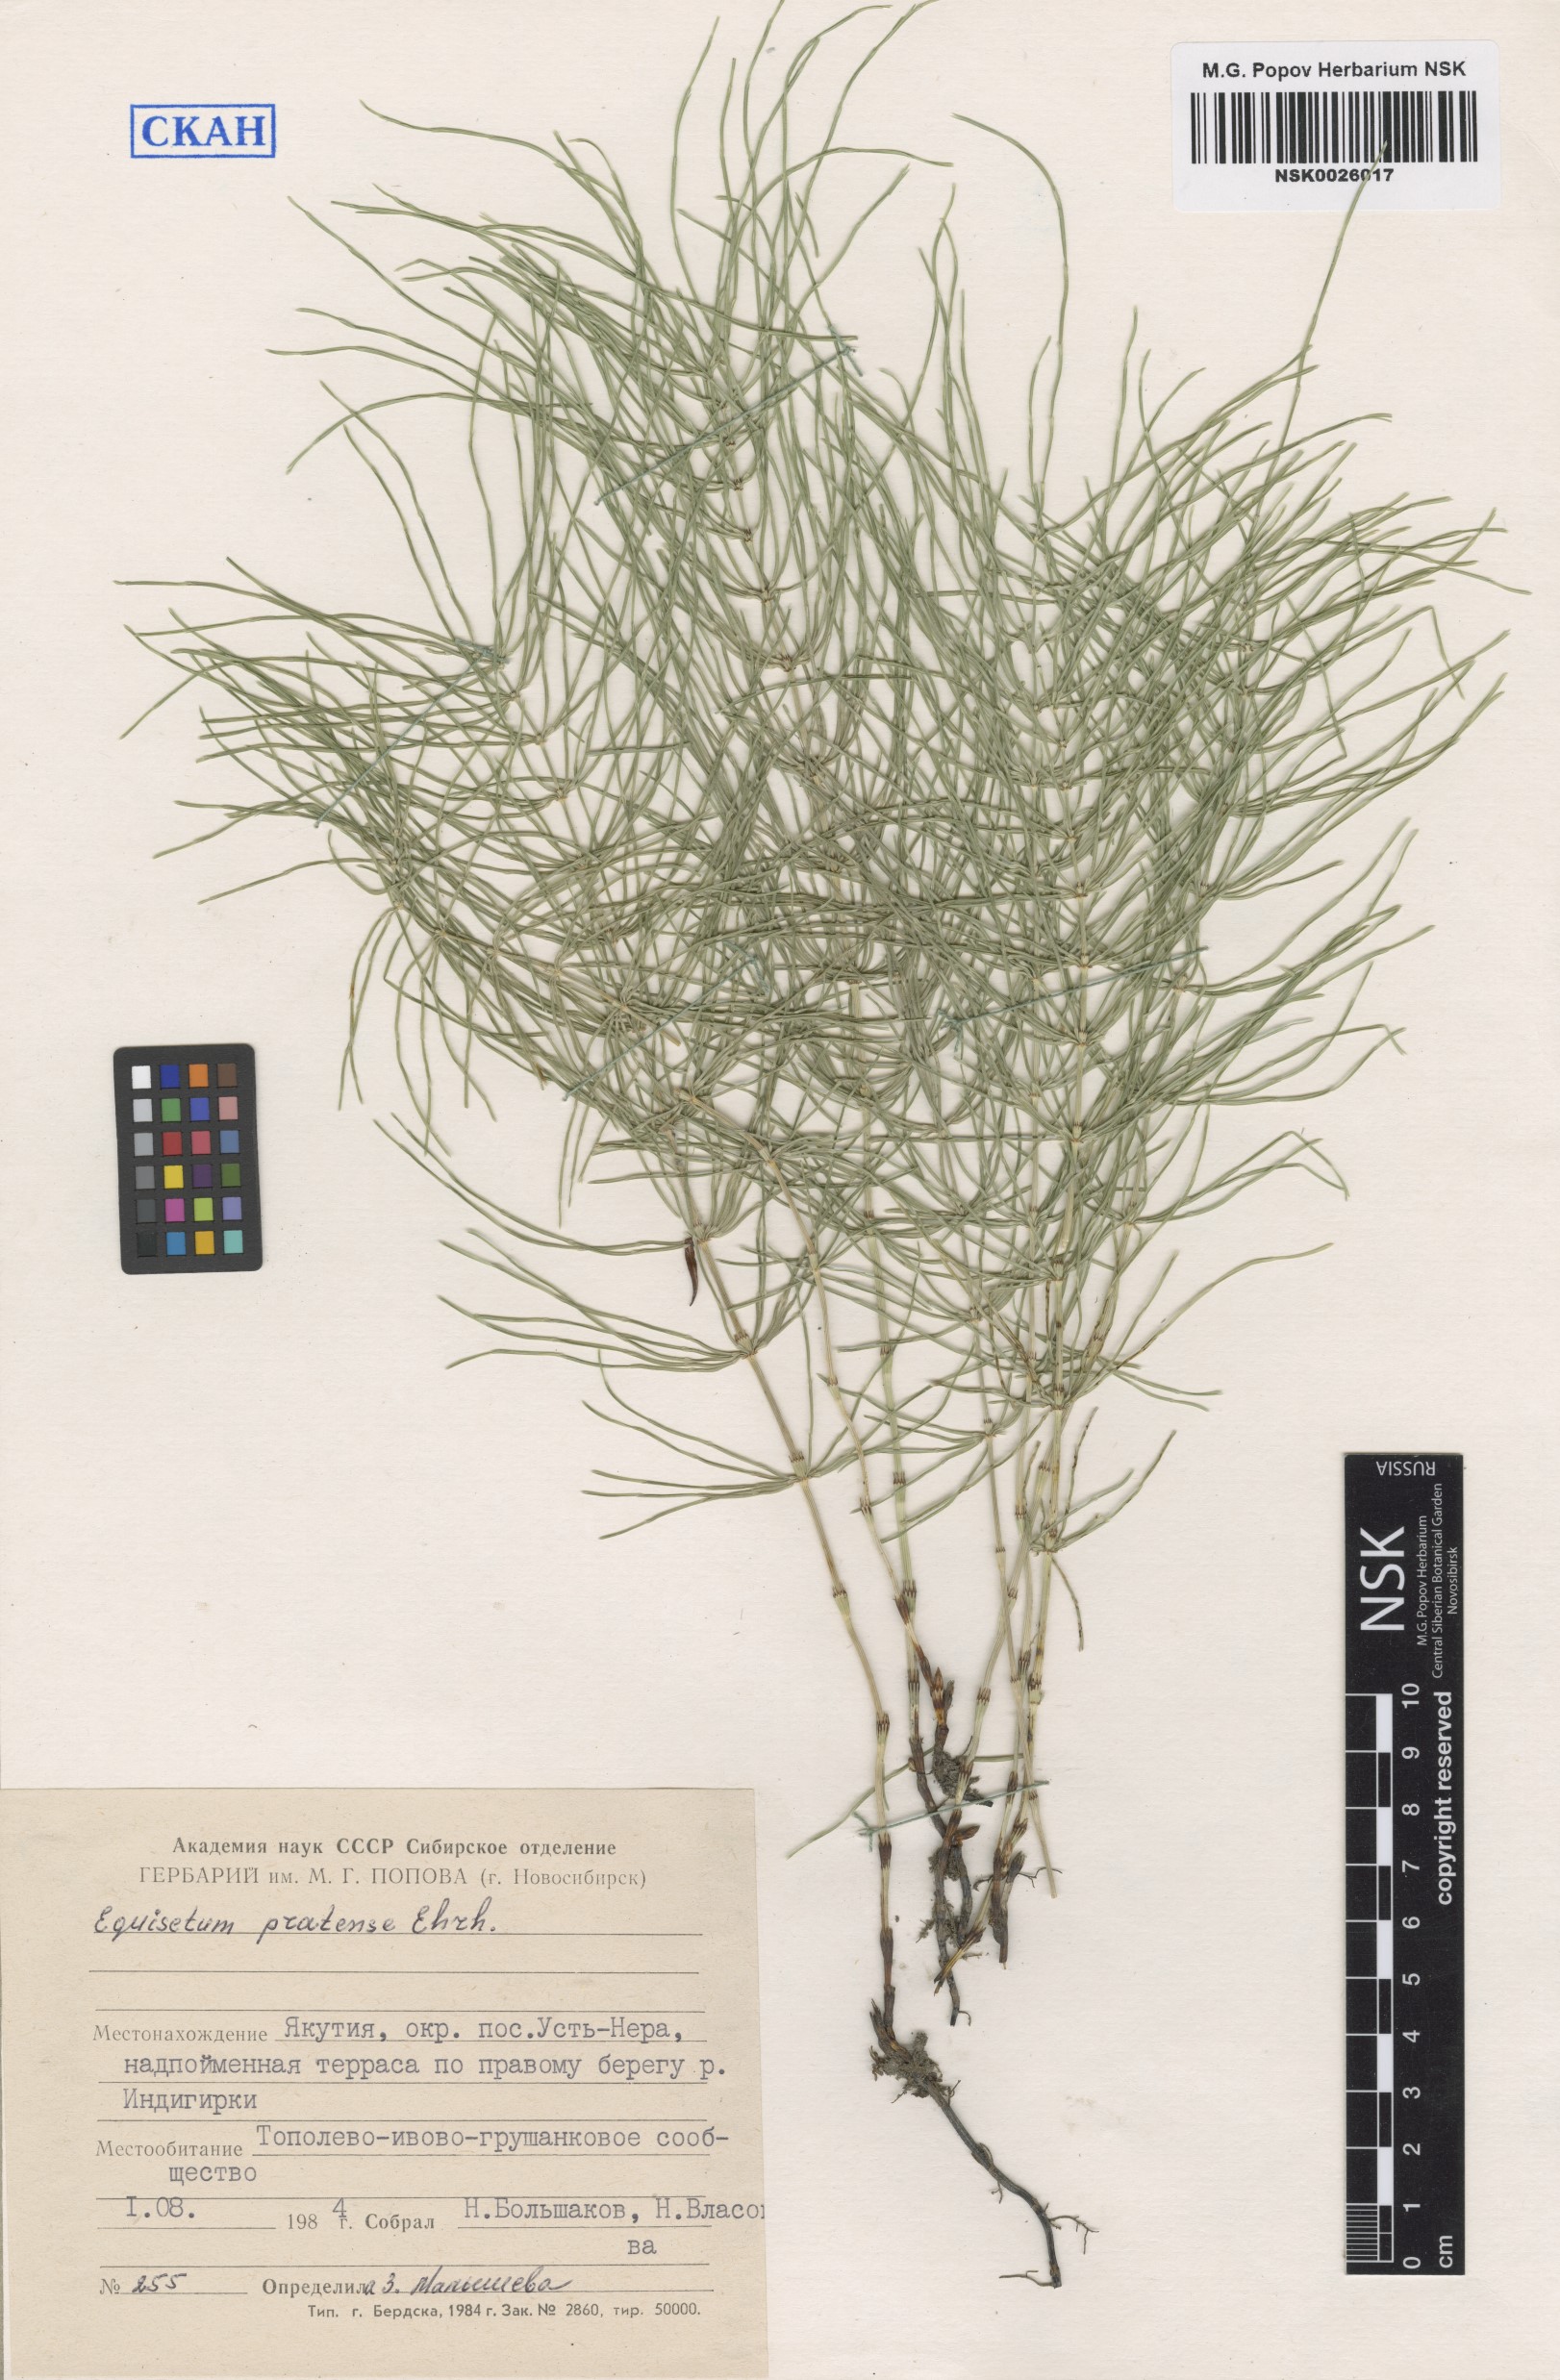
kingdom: Plantae
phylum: Tracheophyta
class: Polypodiopsida
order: Equisetales
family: Equisetaceae
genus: Equisetum
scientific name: Equisetum pratense
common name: Meadow horsetail
